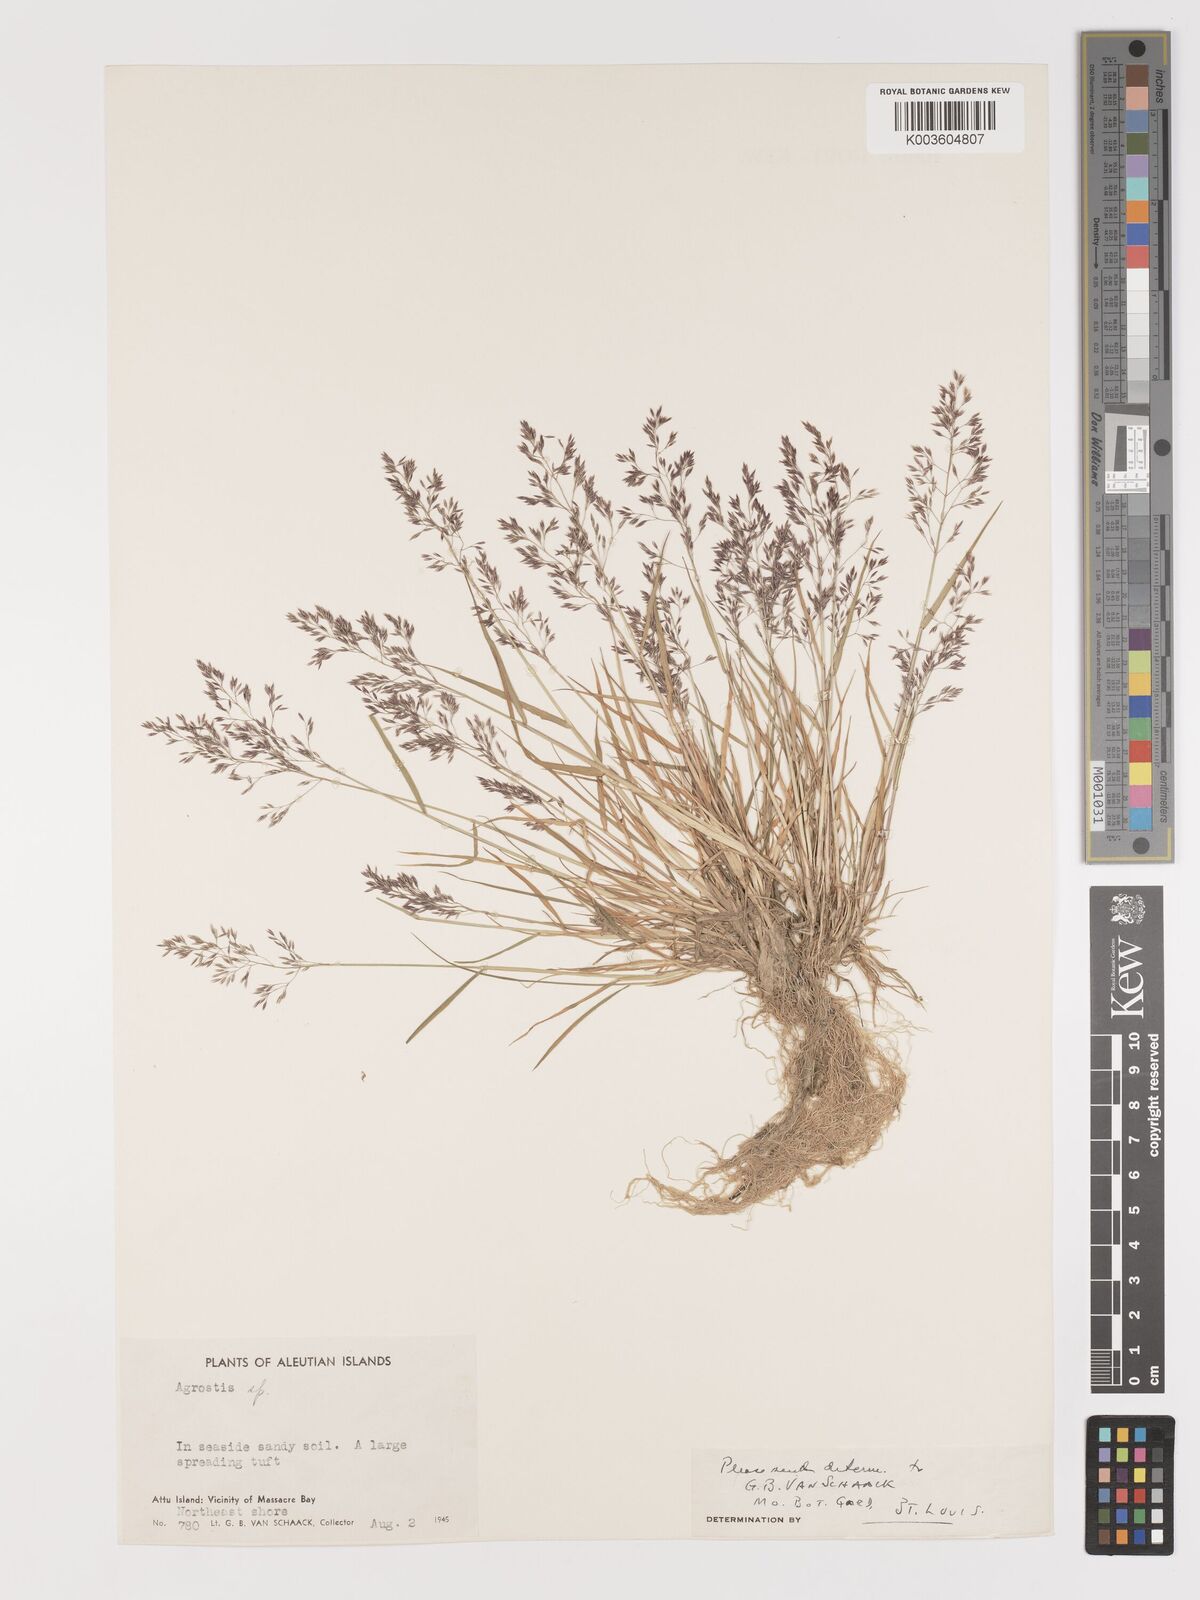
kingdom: Plantae
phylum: Tracheophyta
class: Liliopsida
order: Poales
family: Poaceae
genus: Agrostis
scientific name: Agrostis
